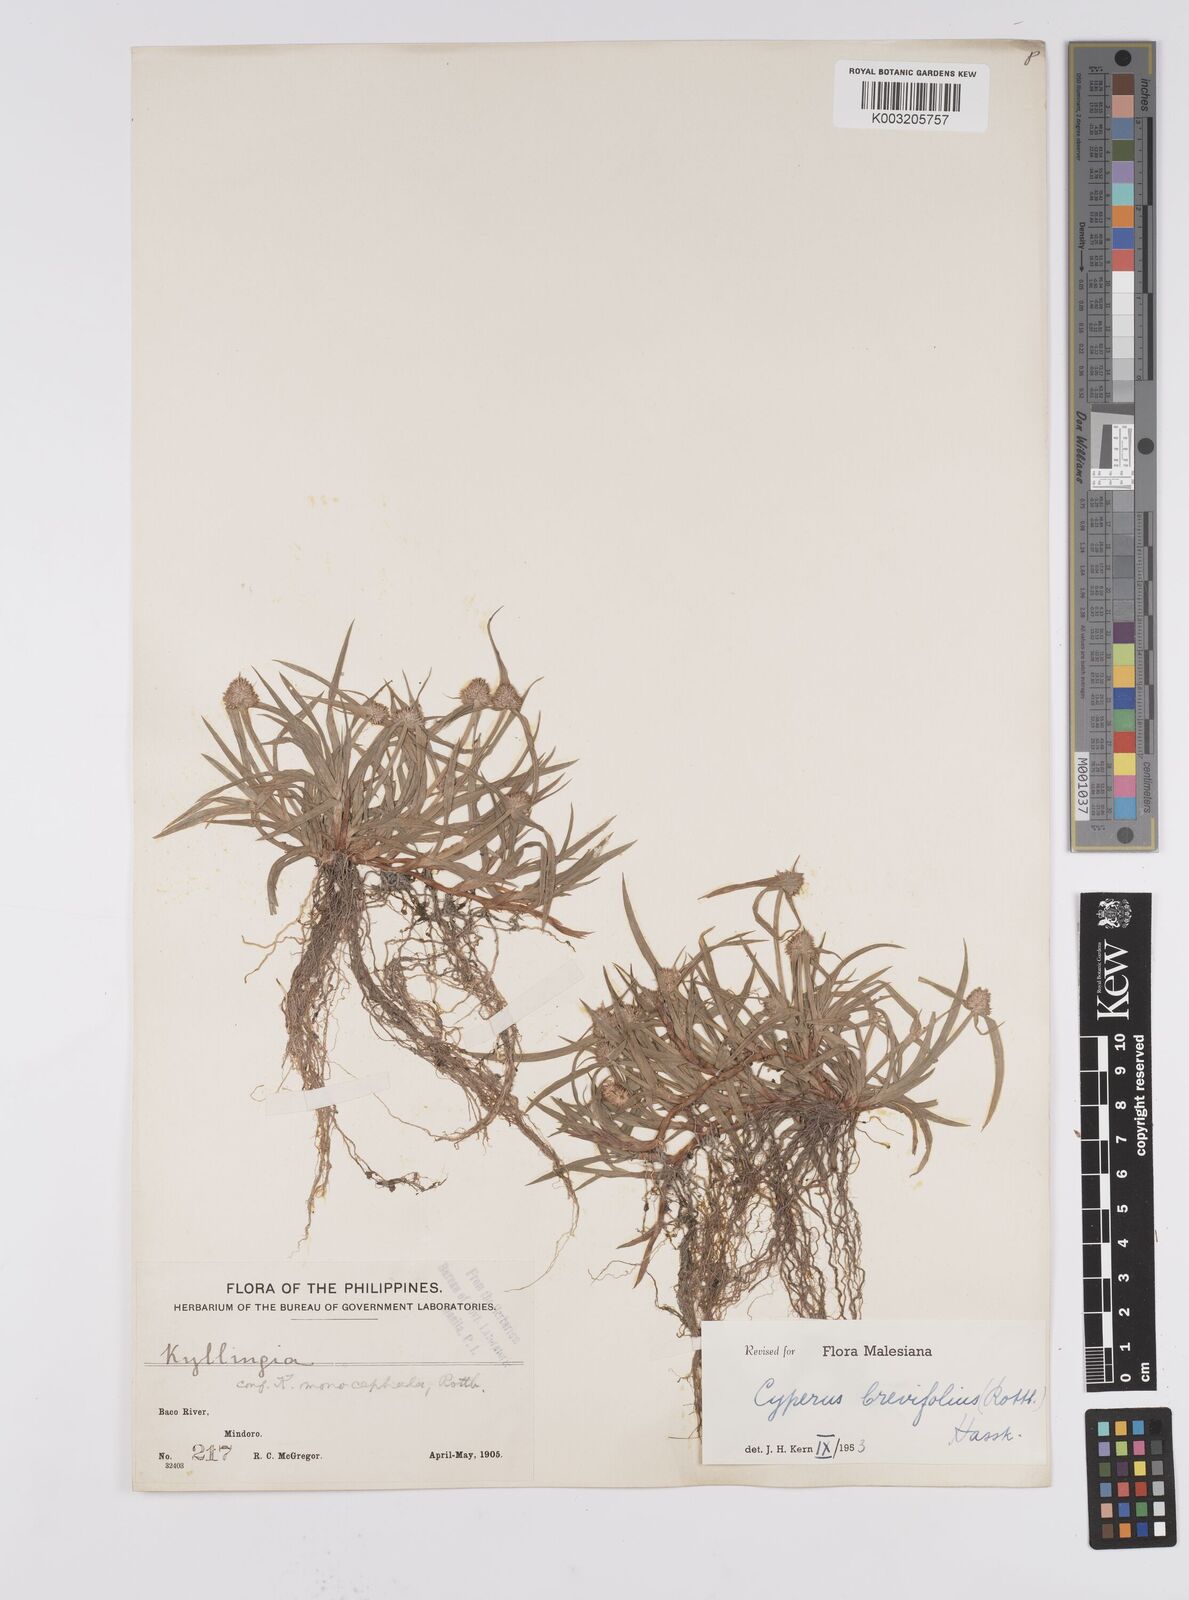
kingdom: Plantae
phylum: Tracheophyta
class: Liliopsida
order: Poales
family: Cyperaceae
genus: Cyperus
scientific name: Cyperus brevifolius
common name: Globe kyllinga
